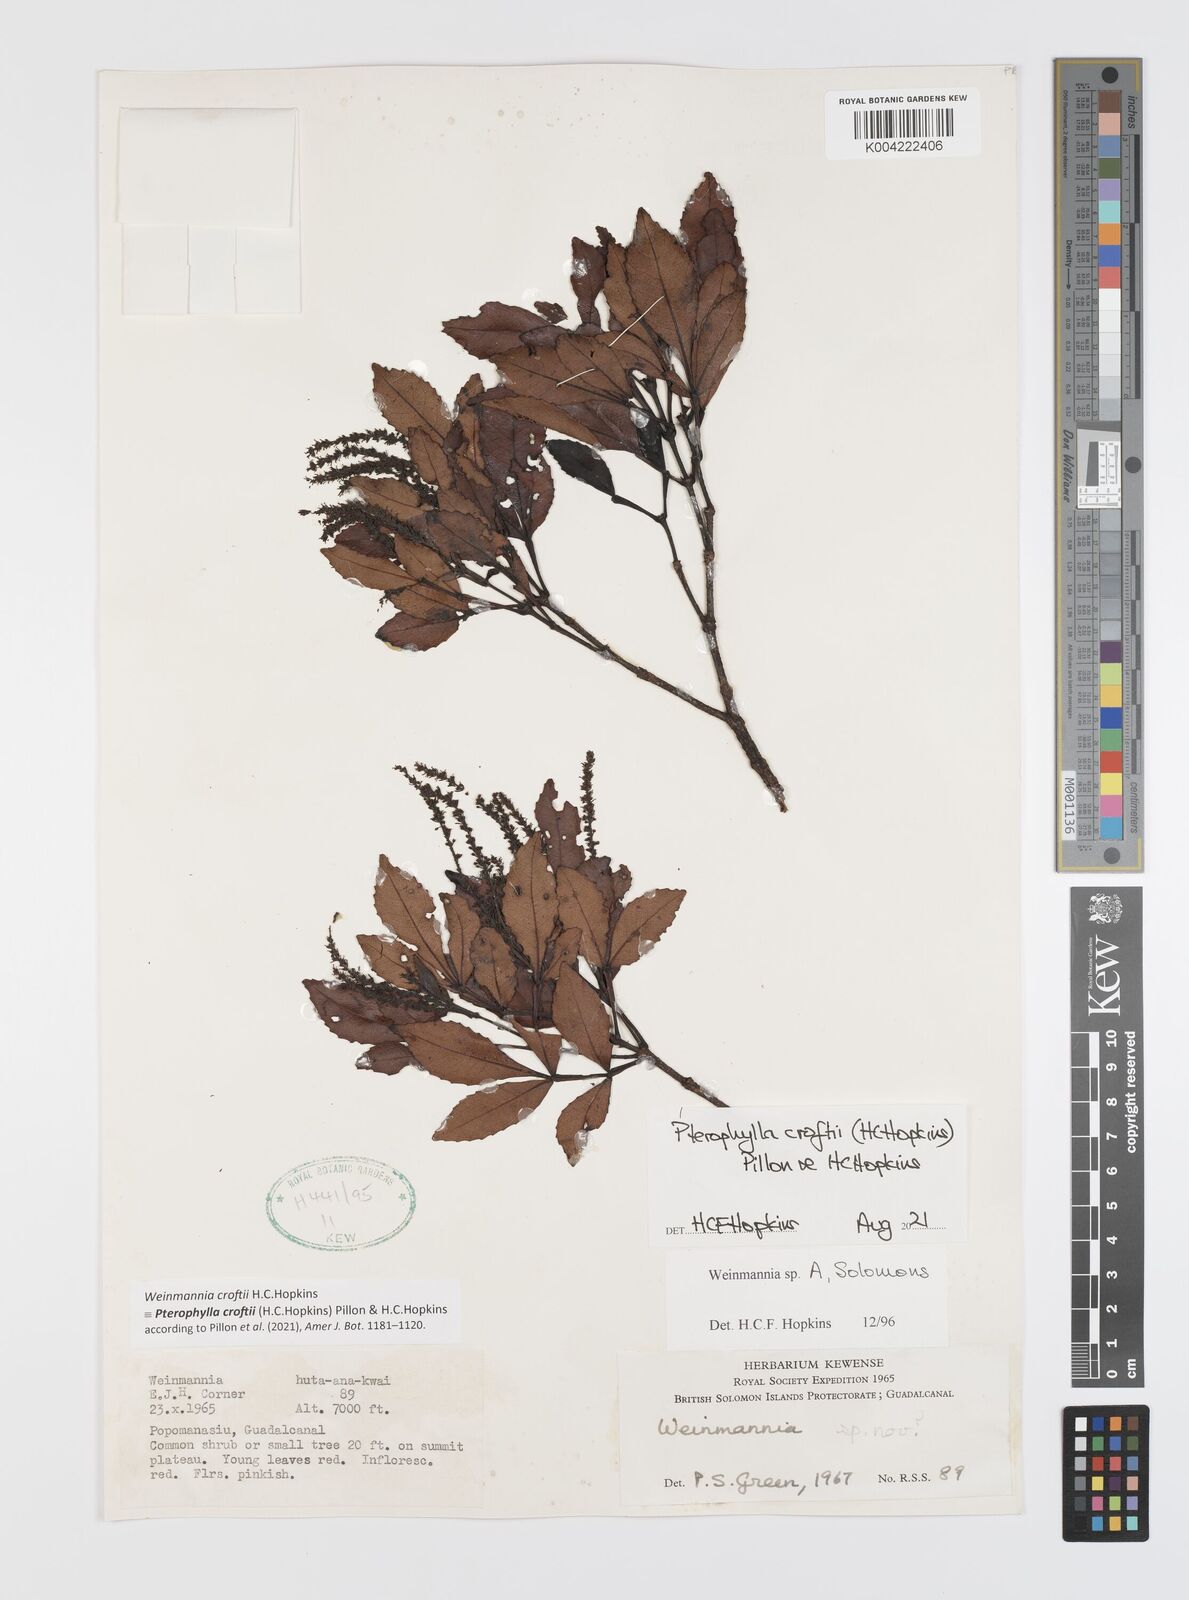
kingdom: Plantae
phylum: Tracheophyta
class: Magnoliopsida
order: Oxalidales
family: Cunoniaceae
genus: Pterophylla
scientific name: Pterophylla croftii
